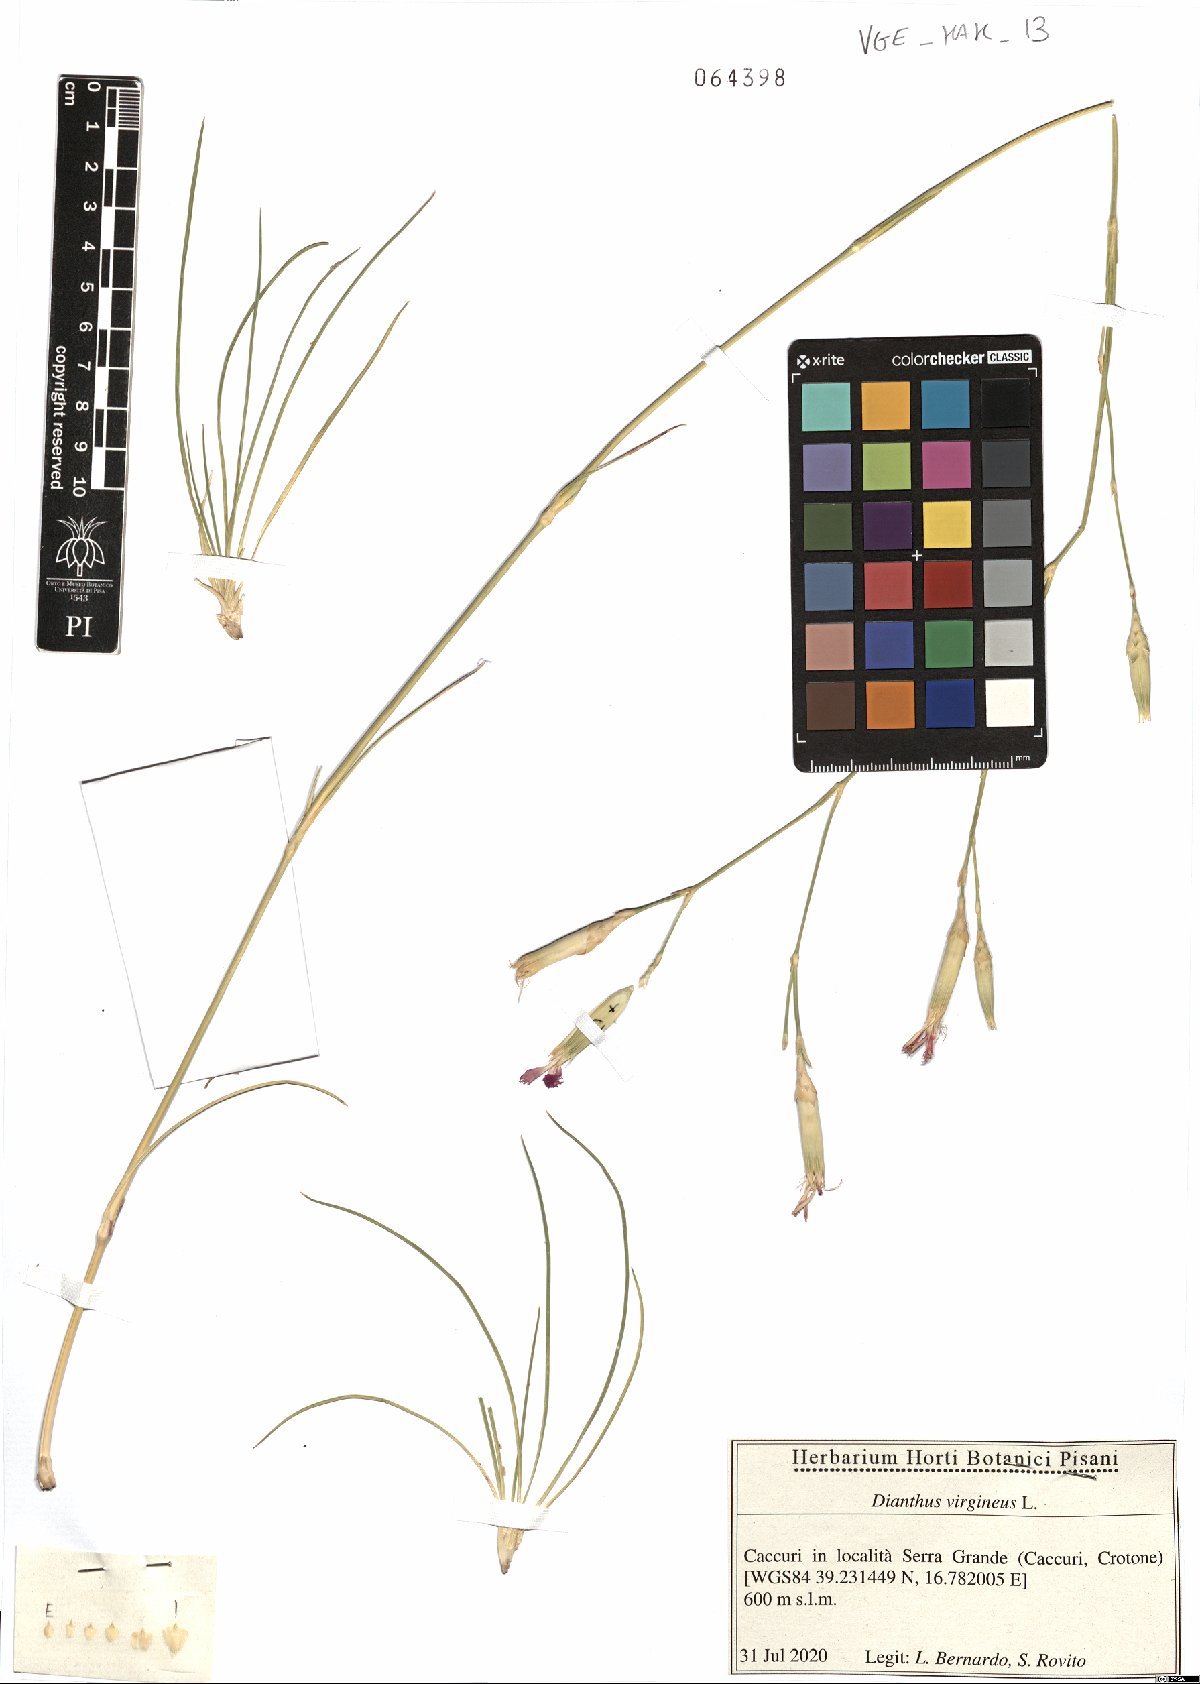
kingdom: Plantae
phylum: Tracheophyta
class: Magnoliopsida
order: Caryophyllales
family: Caryophyllaceae
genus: Dianthus
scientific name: Dianthus virgineus
